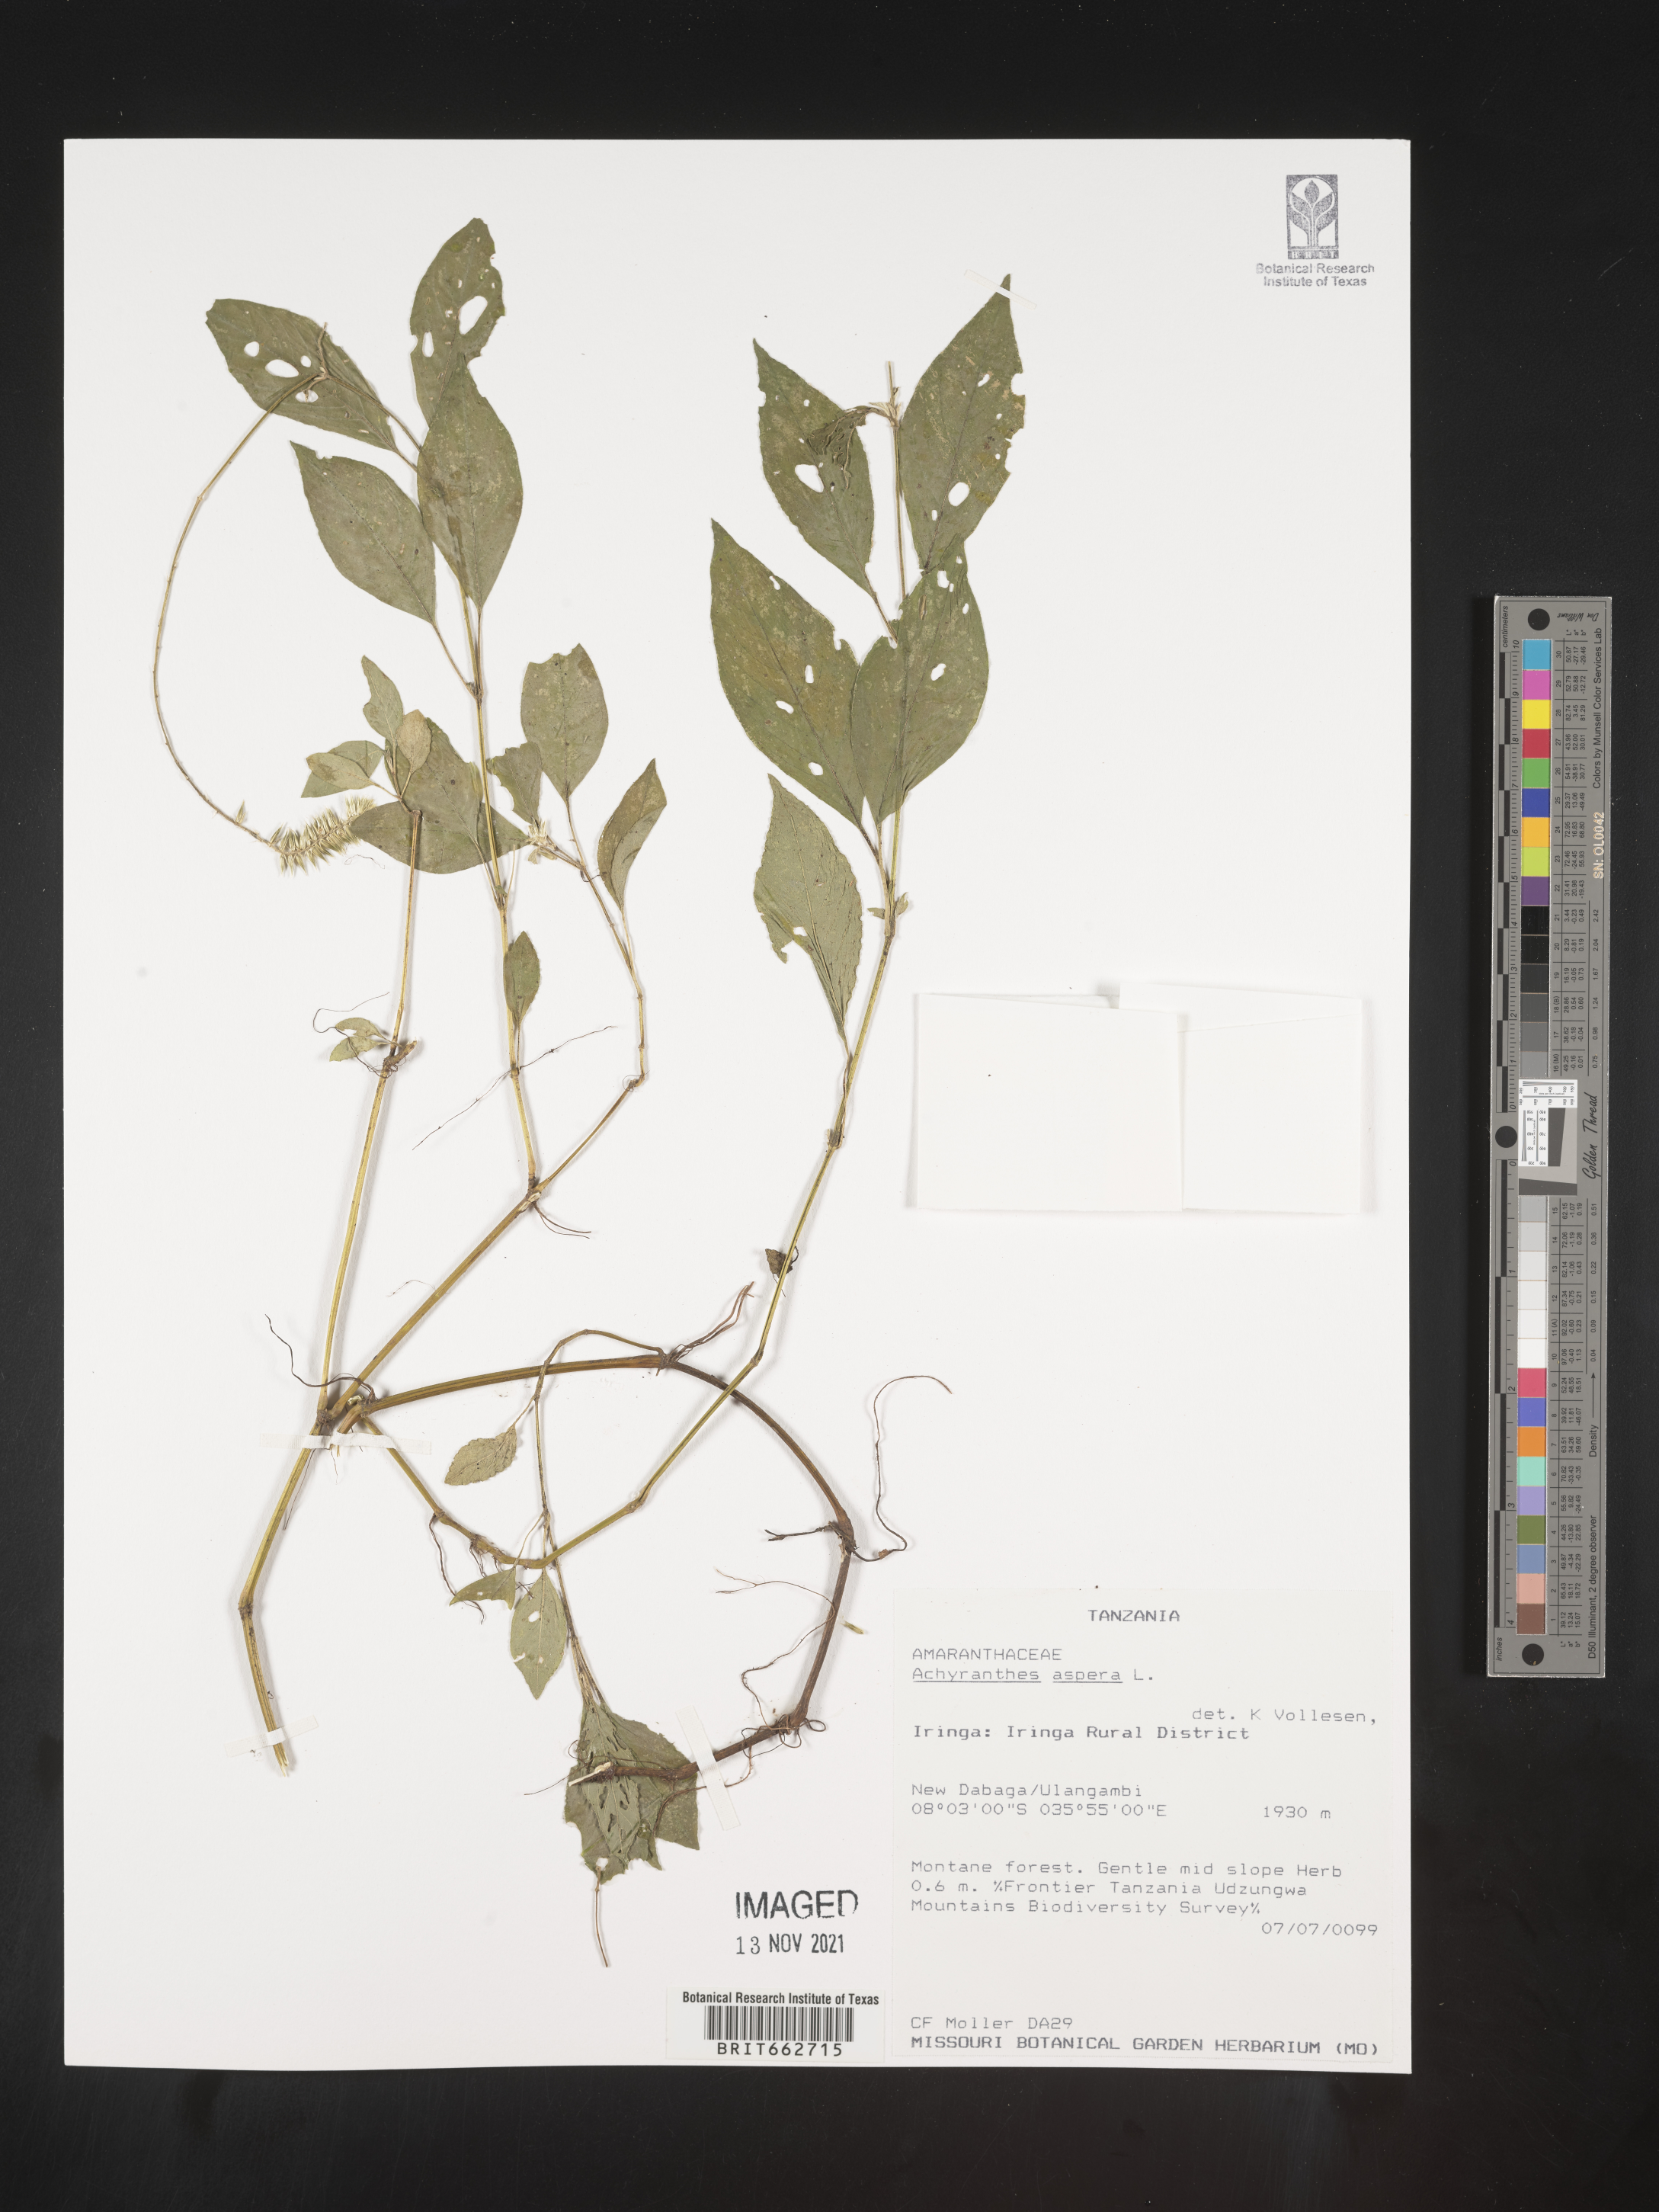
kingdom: Plantae
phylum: Tracheophyta
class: Magnoliopsida
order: Caryophyllales
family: Amaranthaceae
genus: Achyranthes
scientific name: Achyranthes
